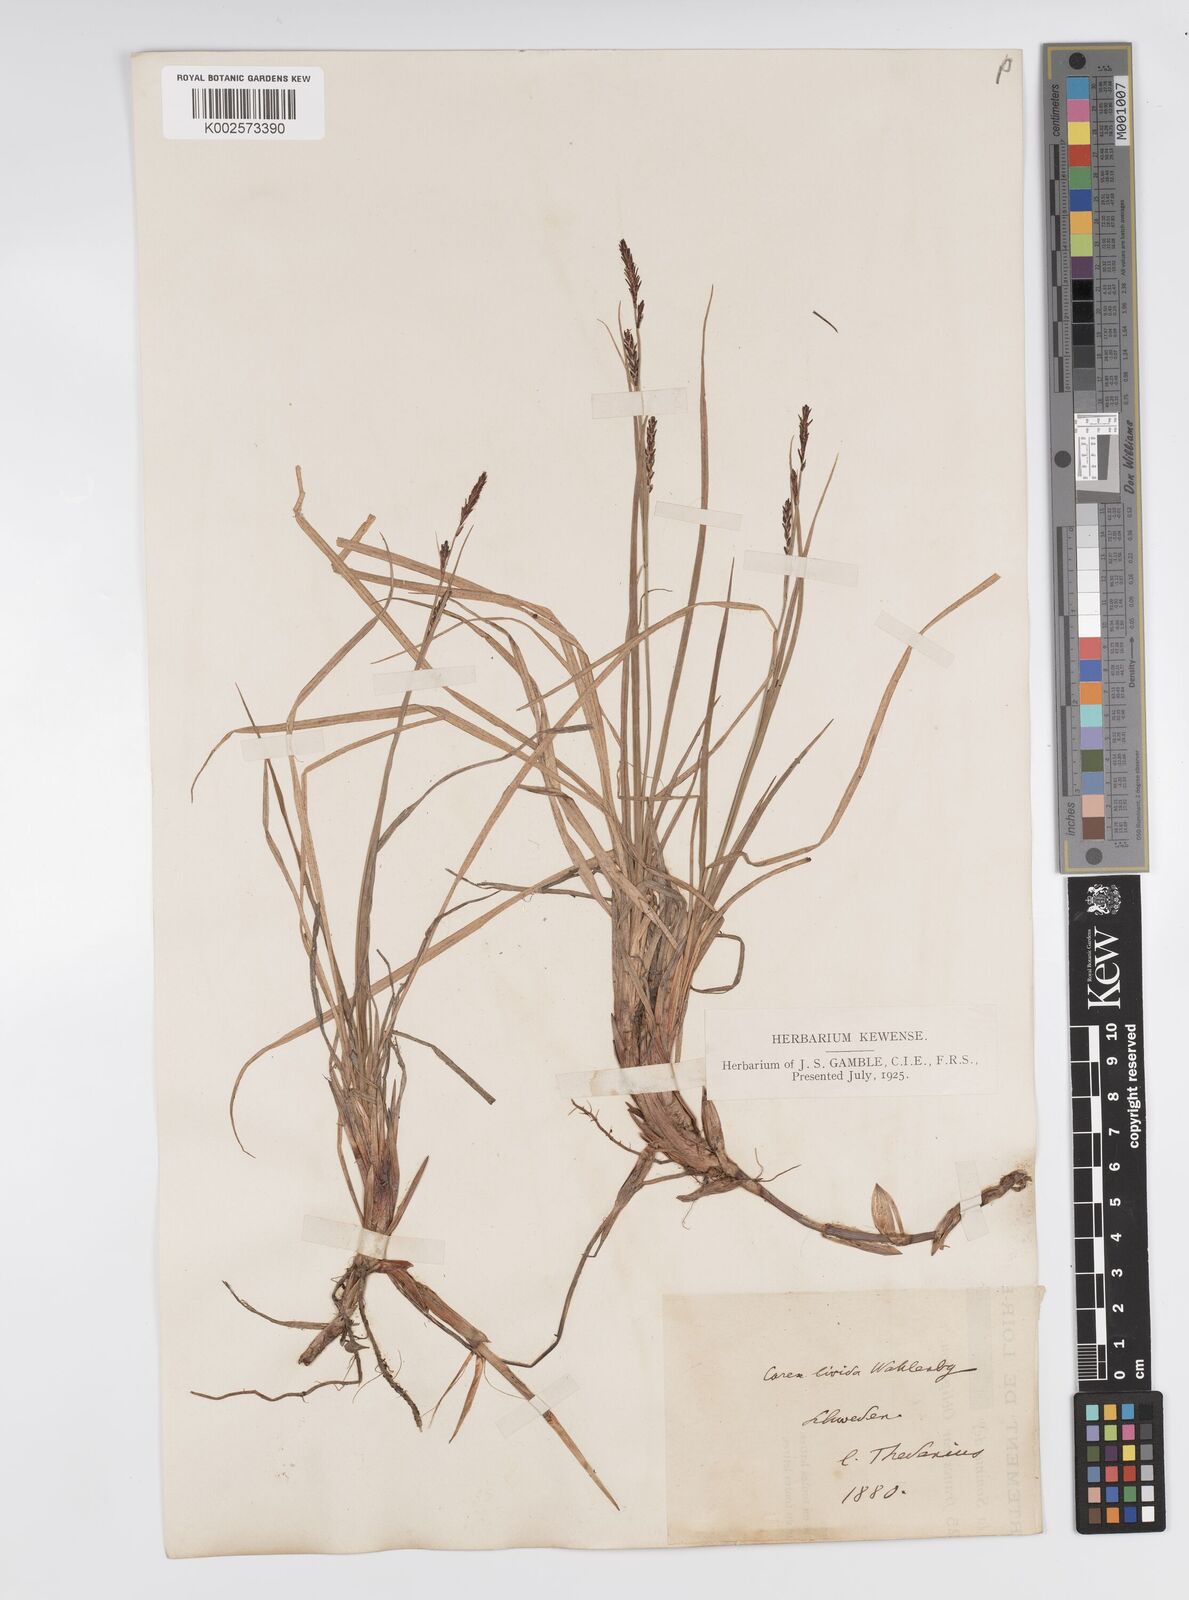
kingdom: Plantae
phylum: Tracheophyta
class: Liliopsida
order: Poales
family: Cyperaceae
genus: Carex
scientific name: Carex livida
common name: Livid sedge
